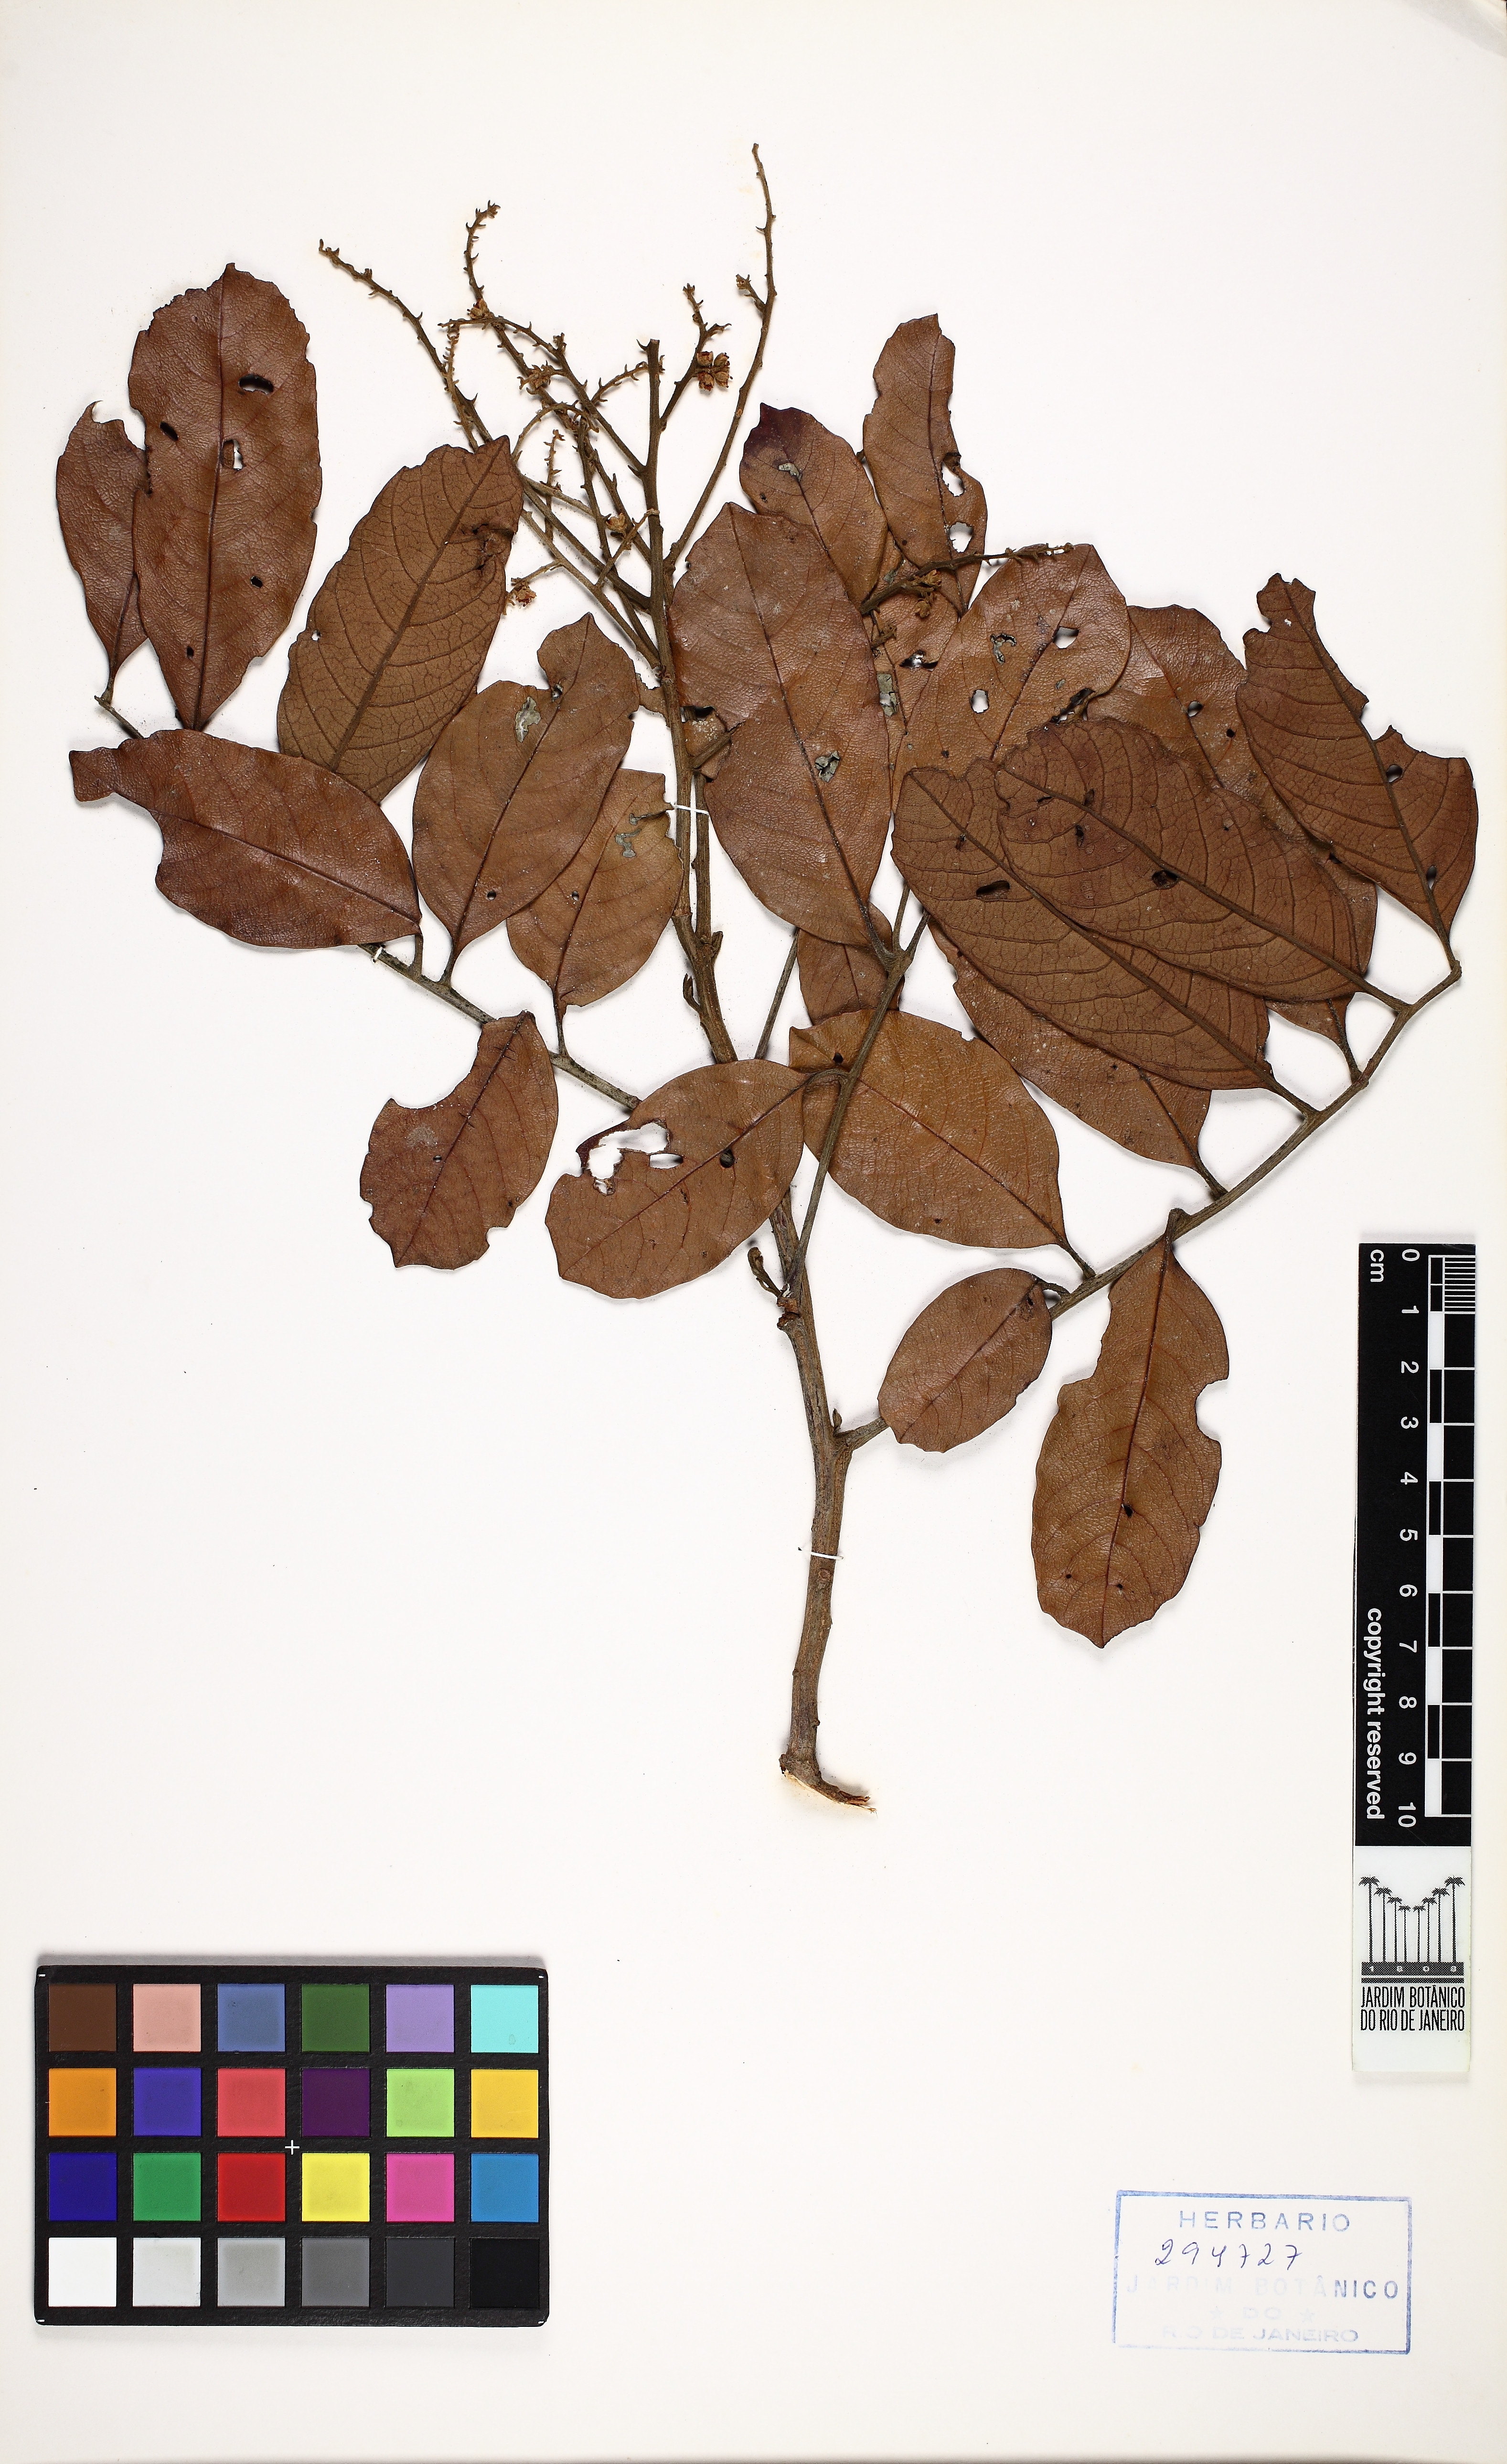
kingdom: Plantae
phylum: Tracheophyta
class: Magnoliopsida
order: Sapindales
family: Sapindaceae
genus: Cupania
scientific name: Cupania zanthoxyloides
